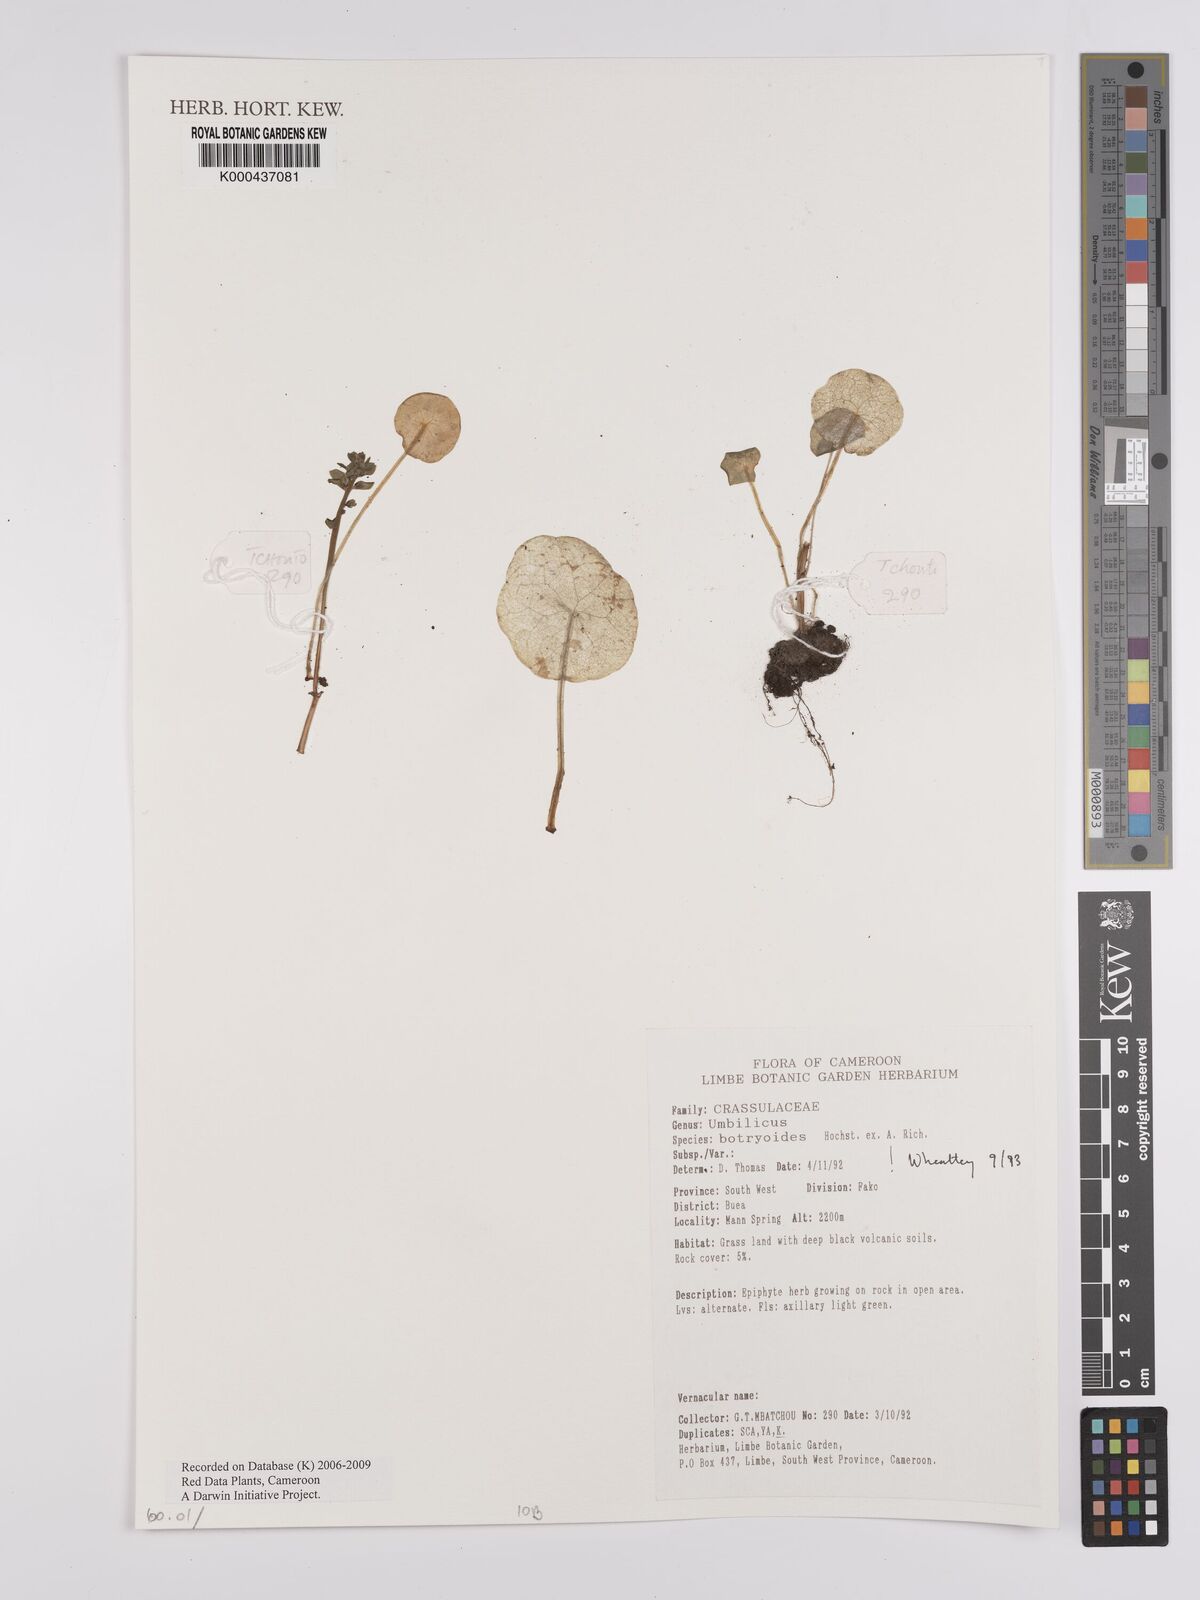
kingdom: Plantae
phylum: Tracheophyta
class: Magnoliopsida
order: Saxifragales
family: Crassulaceae
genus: Umbilicus
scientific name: Umbilicus botryoides
